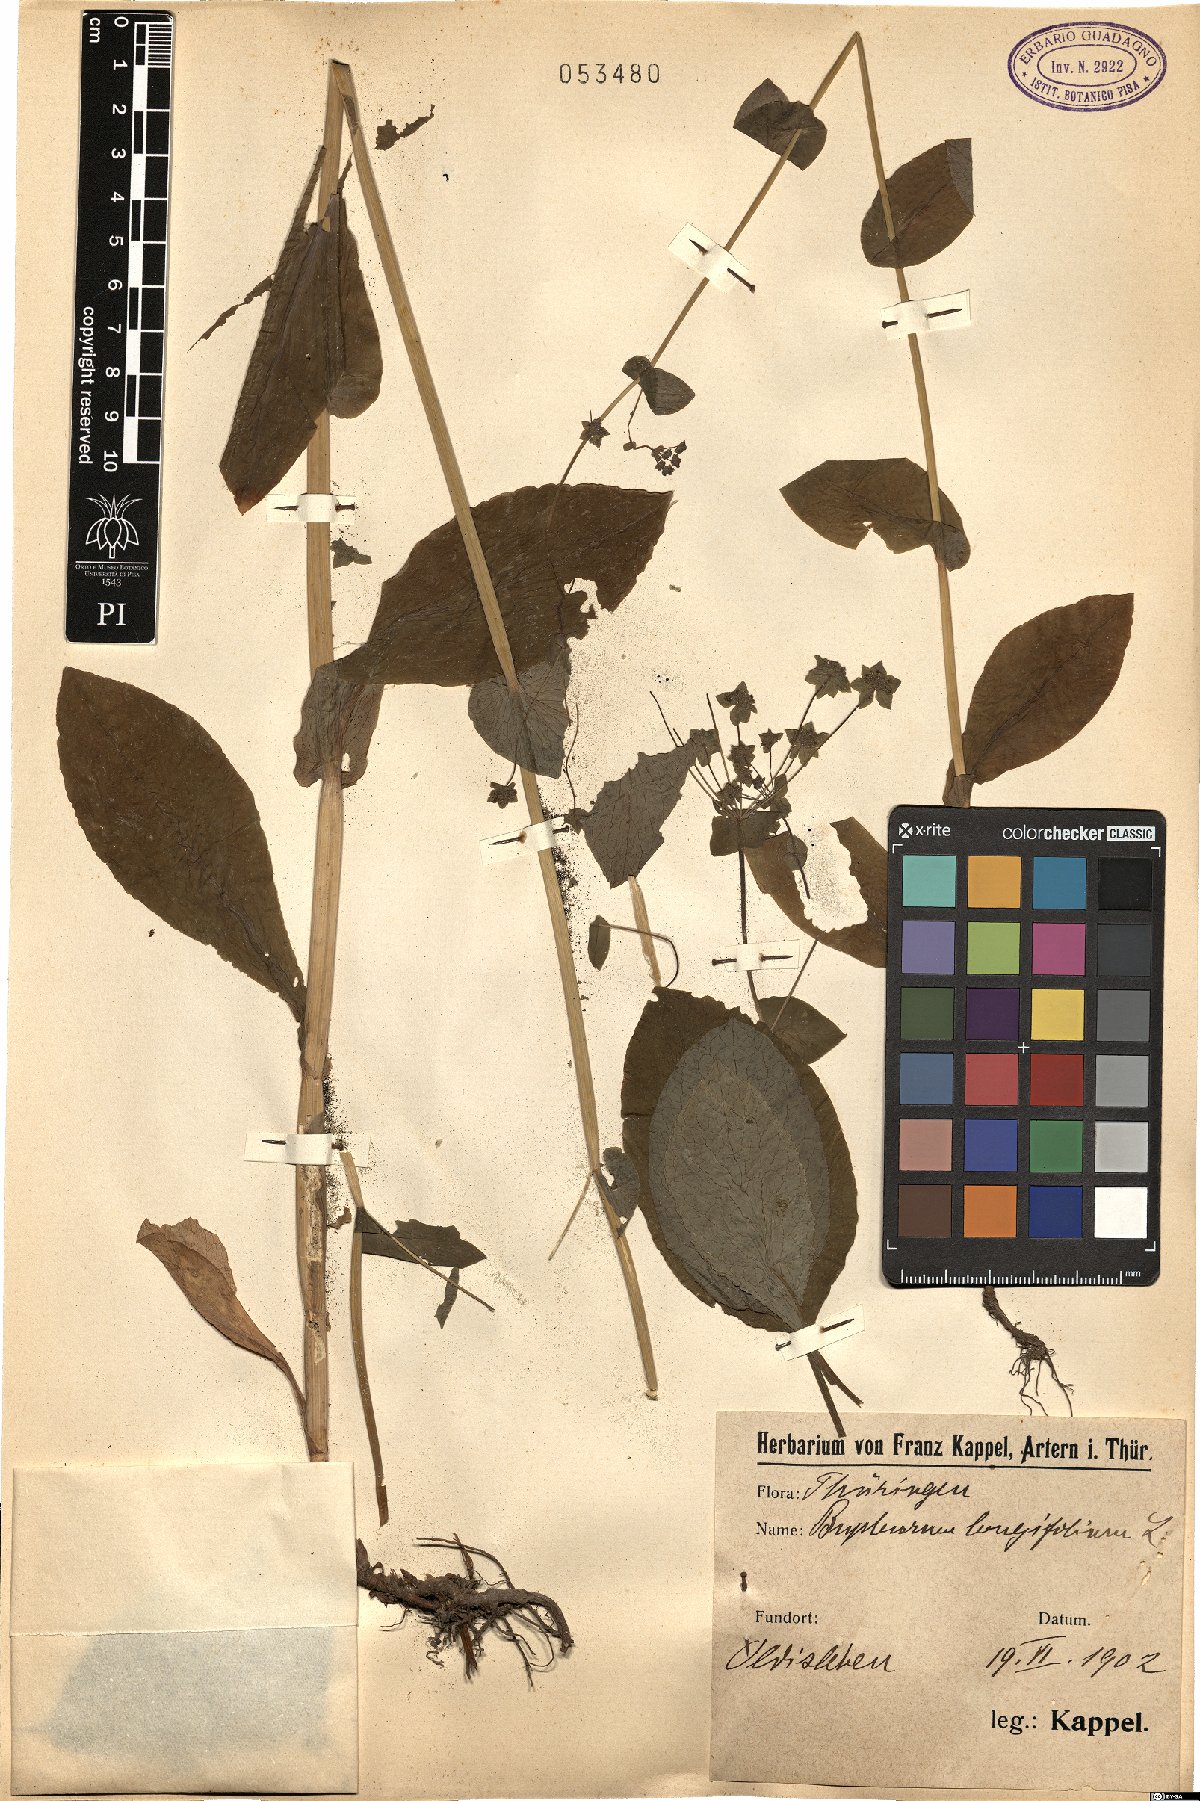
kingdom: Plantae
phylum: Tracheophyta
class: Magnoliopsida
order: Apiales
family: Apiaceae
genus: Bupleurum
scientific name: Bupleurum longifolium
